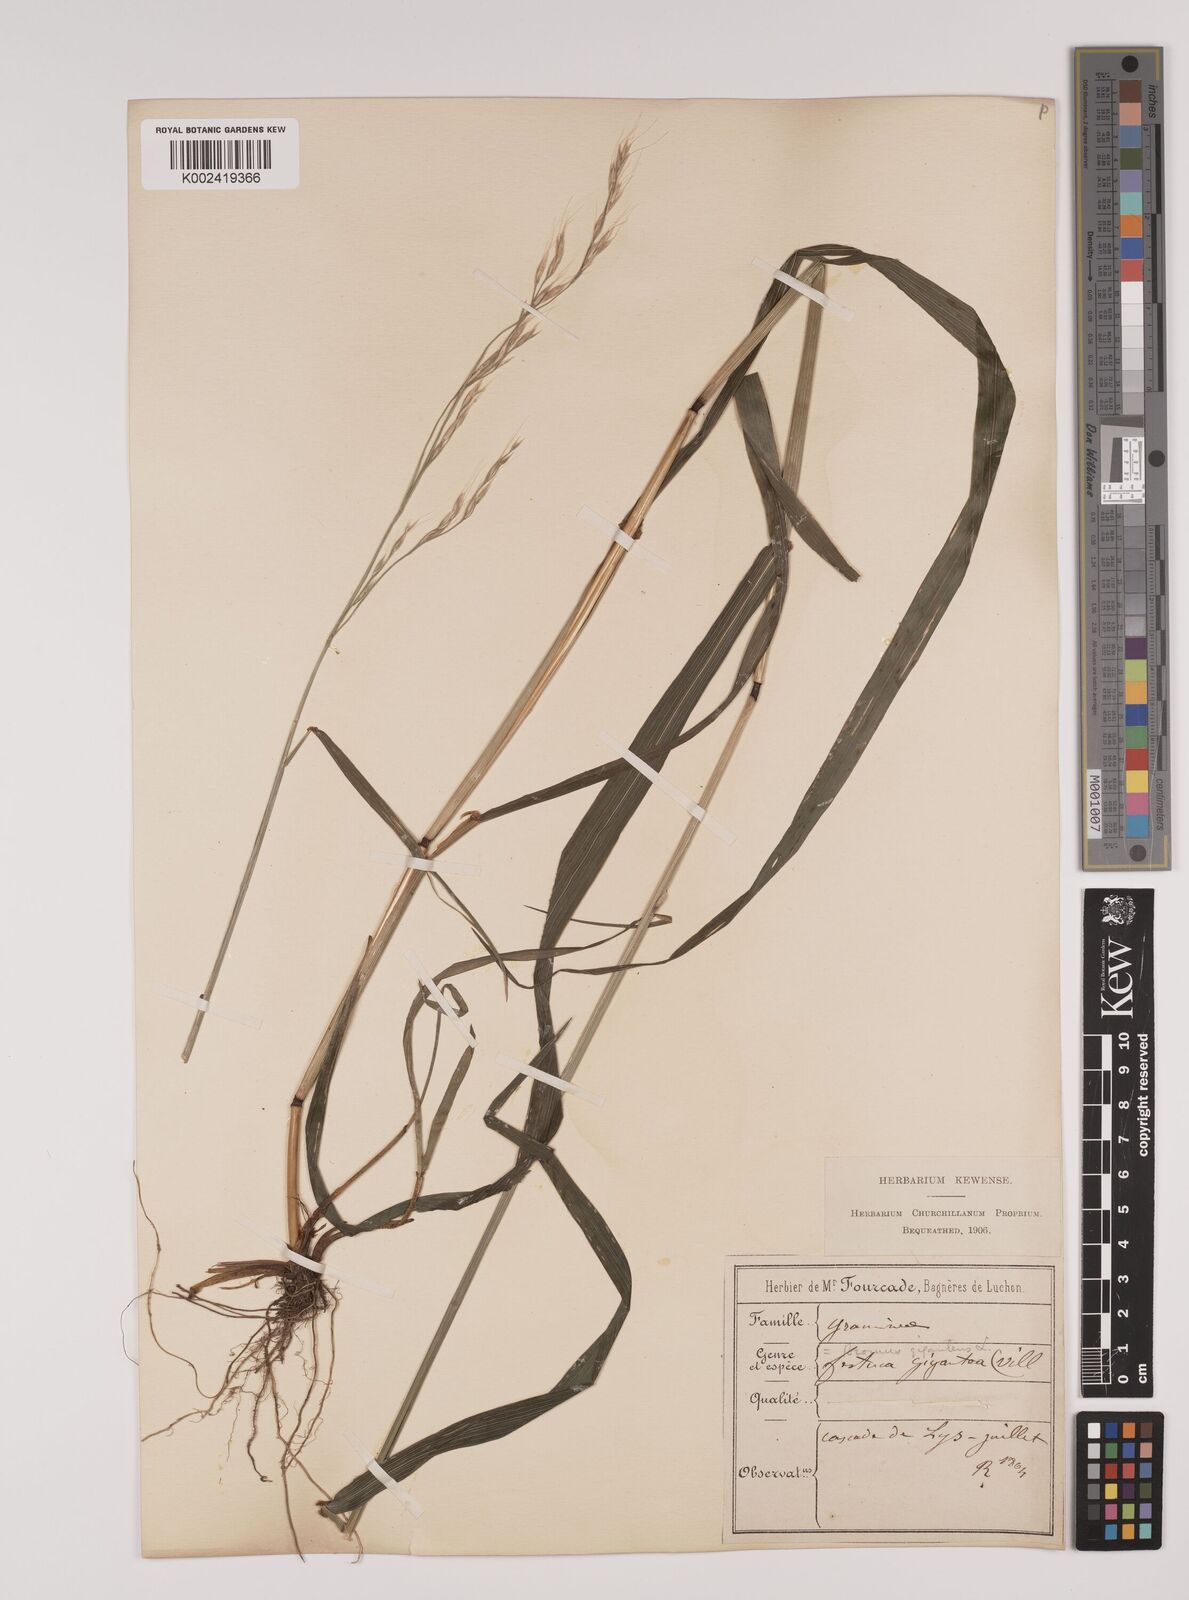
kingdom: Plantae
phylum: Tracheophyta
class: Liliopsida
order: Poales
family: Poaceae
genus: Lolium
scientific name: Lolium giganteum
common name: Giant fescue
